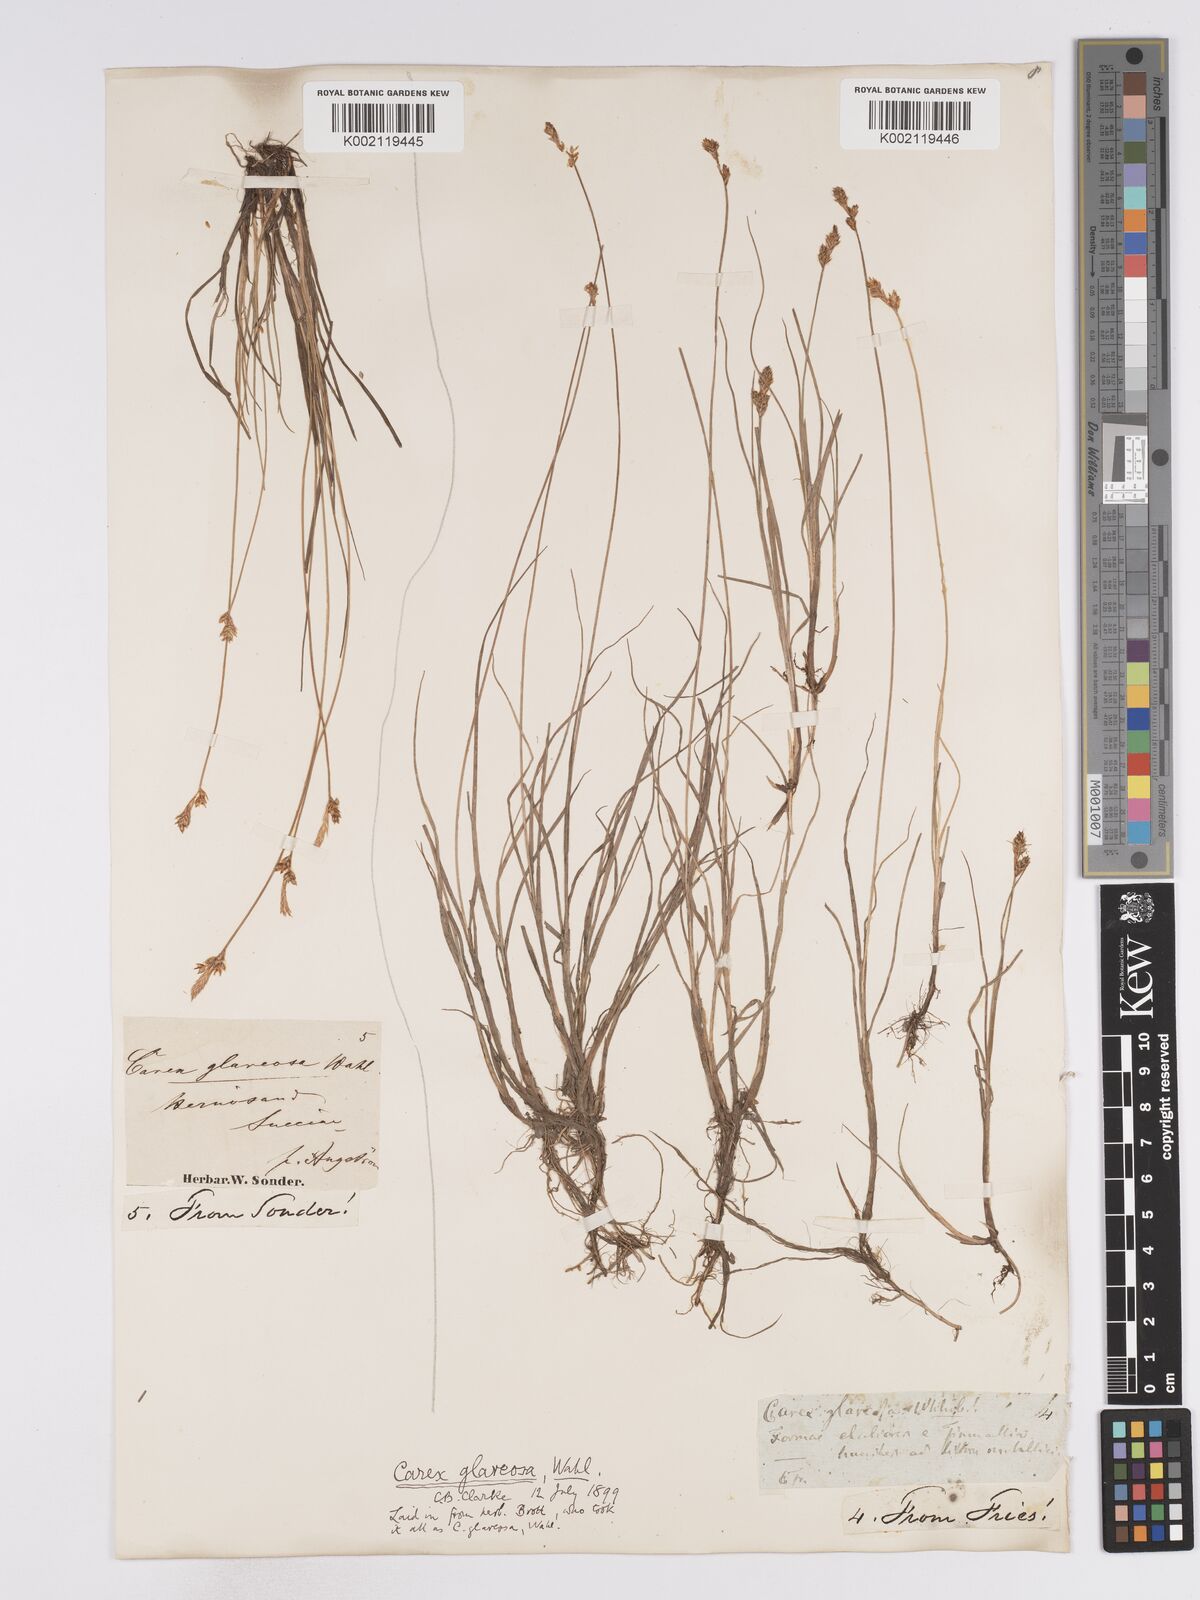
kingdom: Plantae
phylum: Tracheophyta
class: Liliopsida
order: Poales
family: Cyperaceae
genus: Carex
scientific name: Carex glareosa
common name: Clustered sedge
